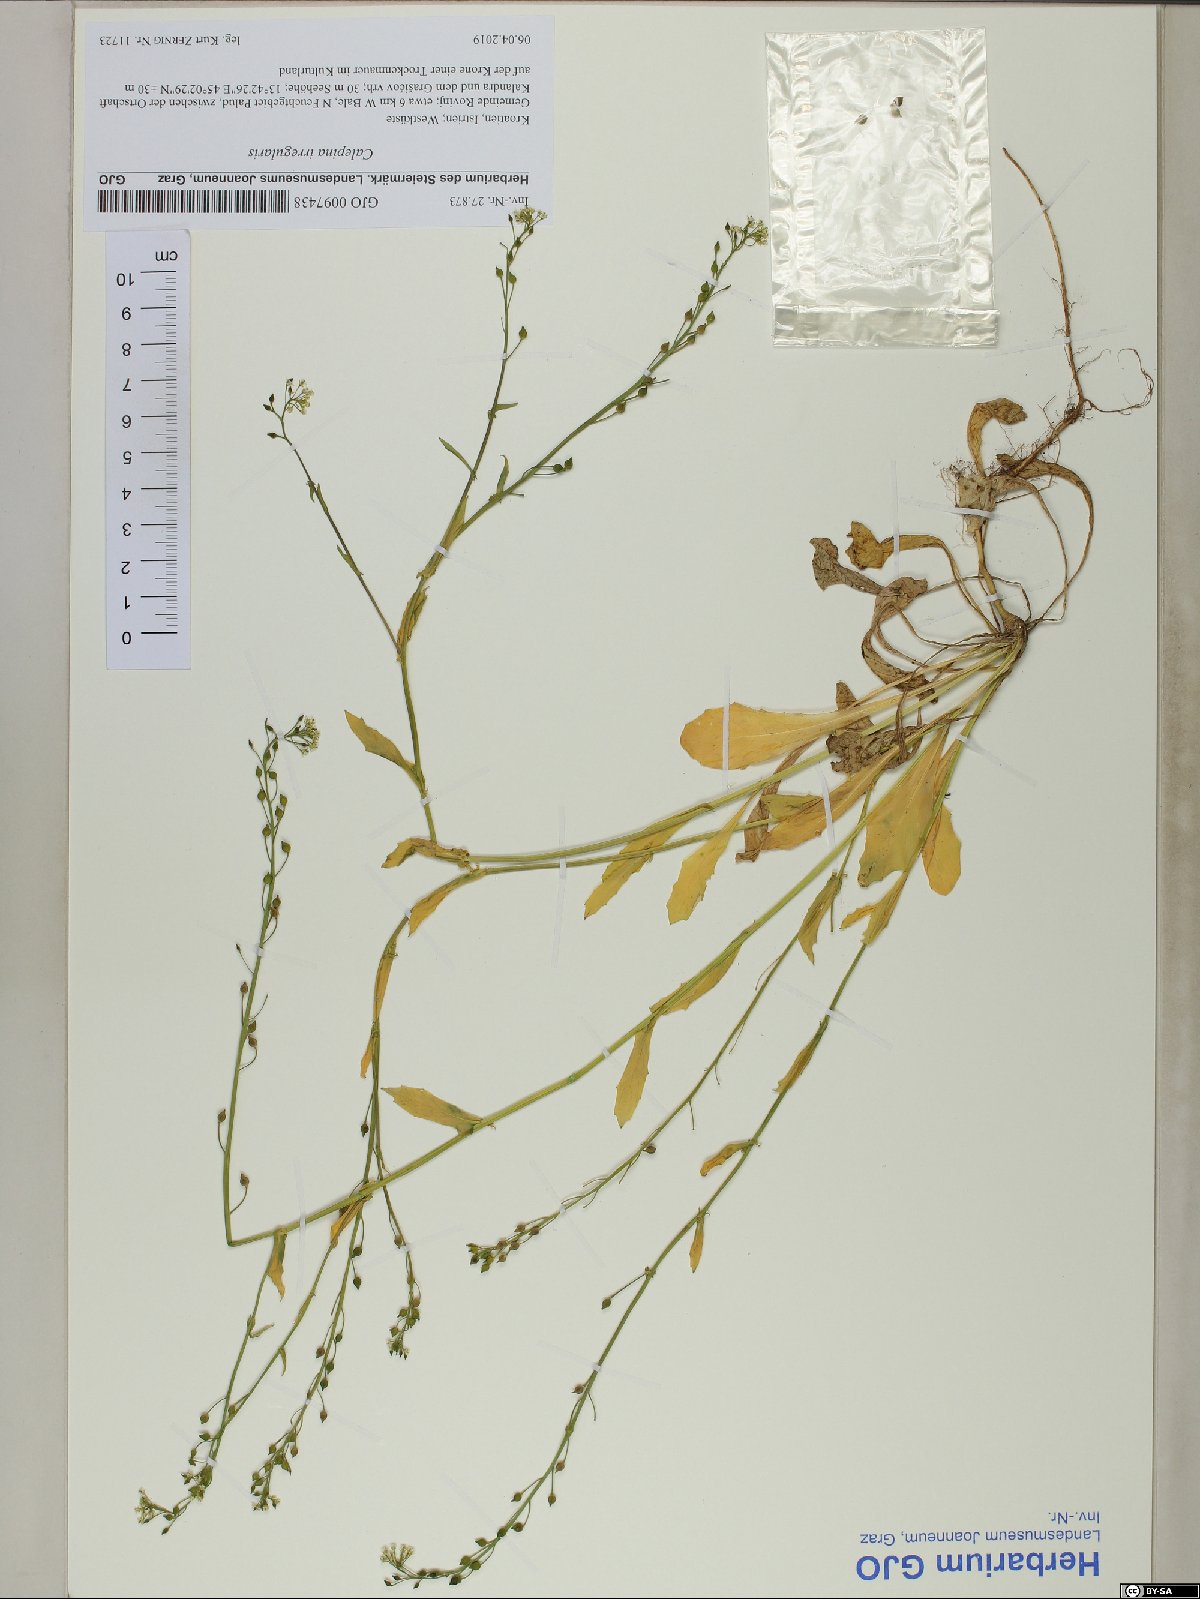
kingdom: Plantae
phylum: Tracheophyta
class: Magnoliopsida
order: Brassicales
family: Brassicaceae
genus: Calepina
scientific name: Calepina irregularis
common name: White ballmustard
